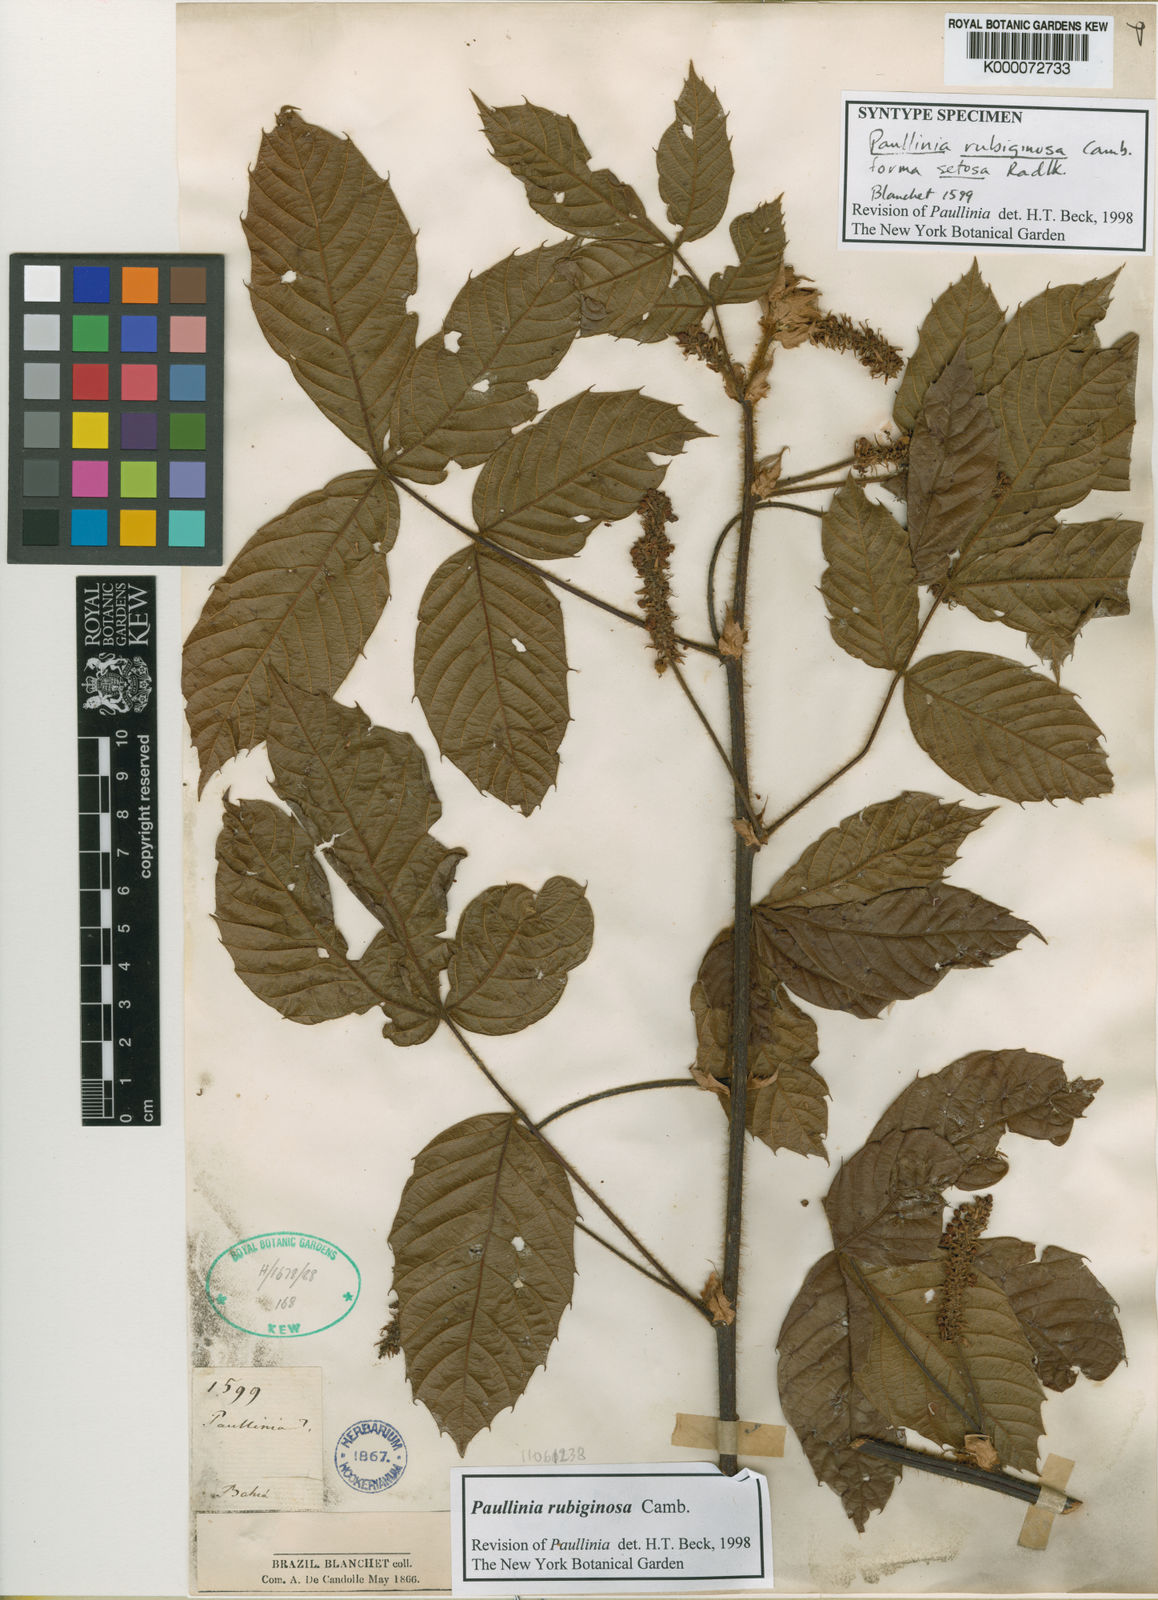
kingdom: Plantae
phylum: Tracheophyta
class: Magnoliopsida
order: Sapindales
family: Sapindaceae
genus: Paullinia
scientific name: Paullinia rubiginosa
